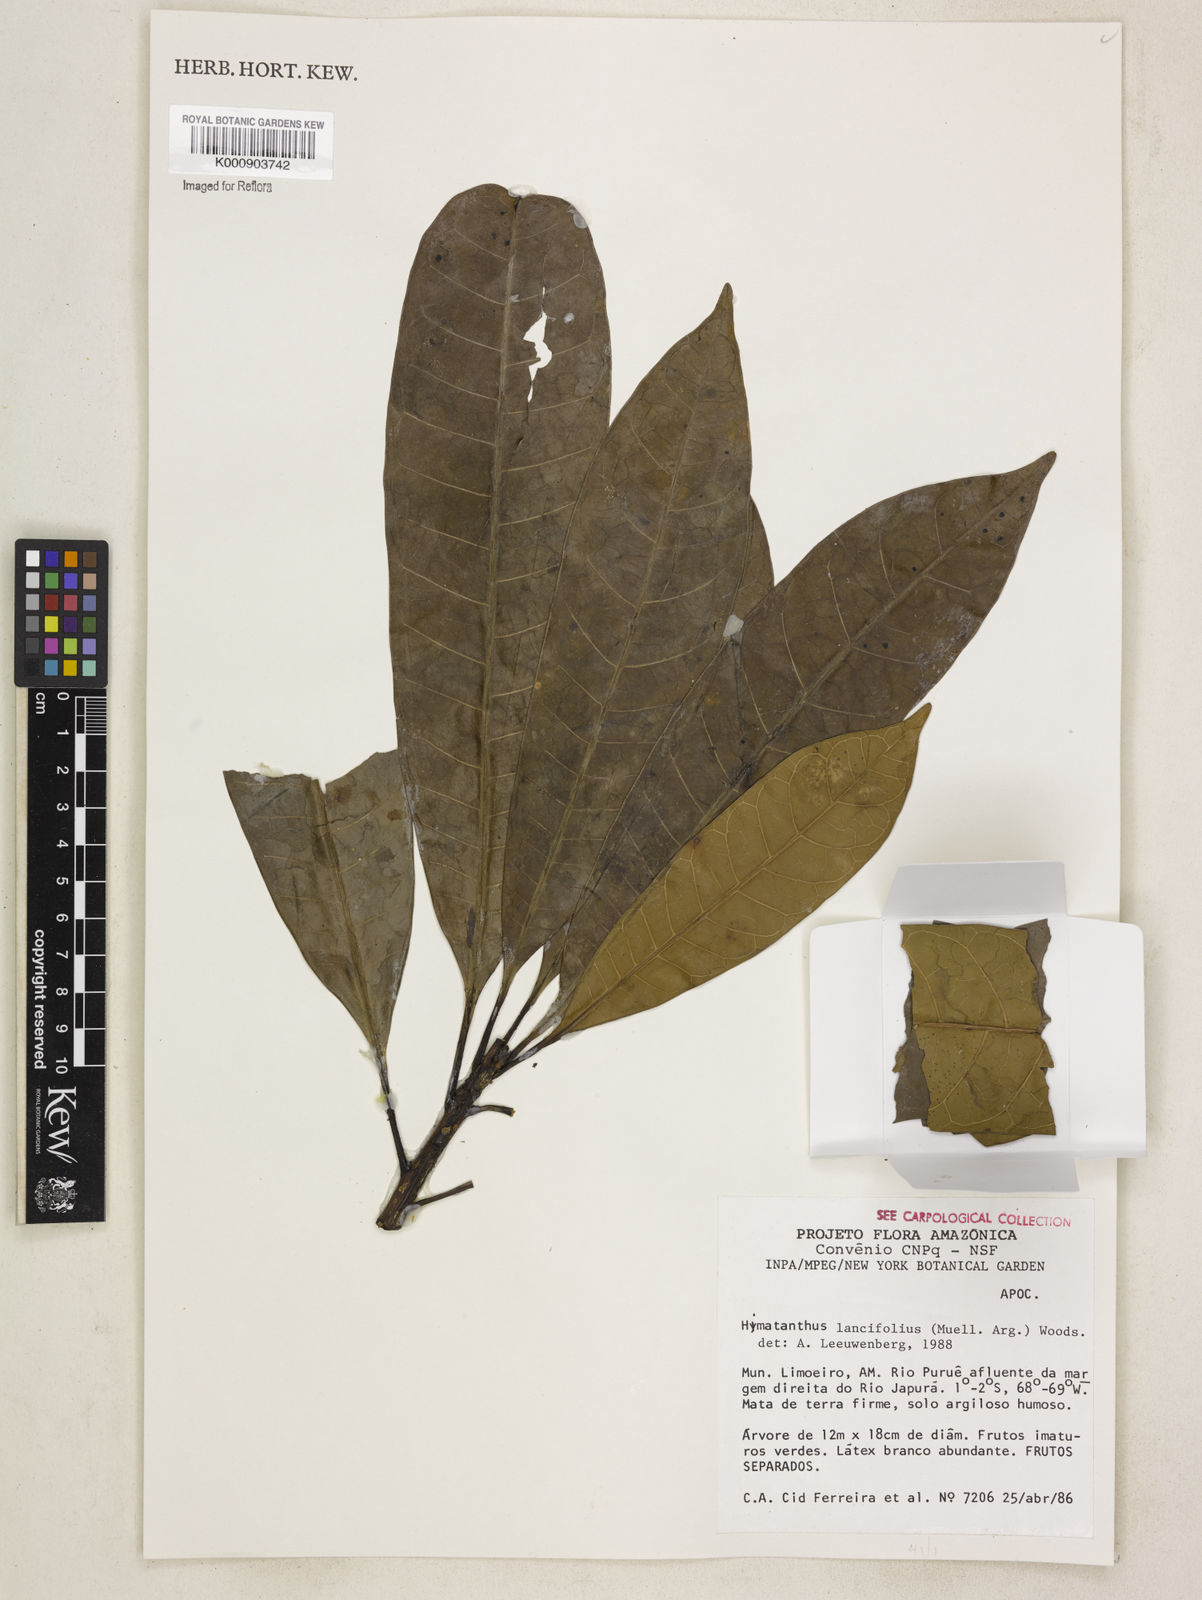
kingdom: Plantae
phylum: Tracheophyta
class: Magnoliopsida
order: Gentianales
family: Apocynaceae
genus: Himatanthus
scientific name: Himatanthus
